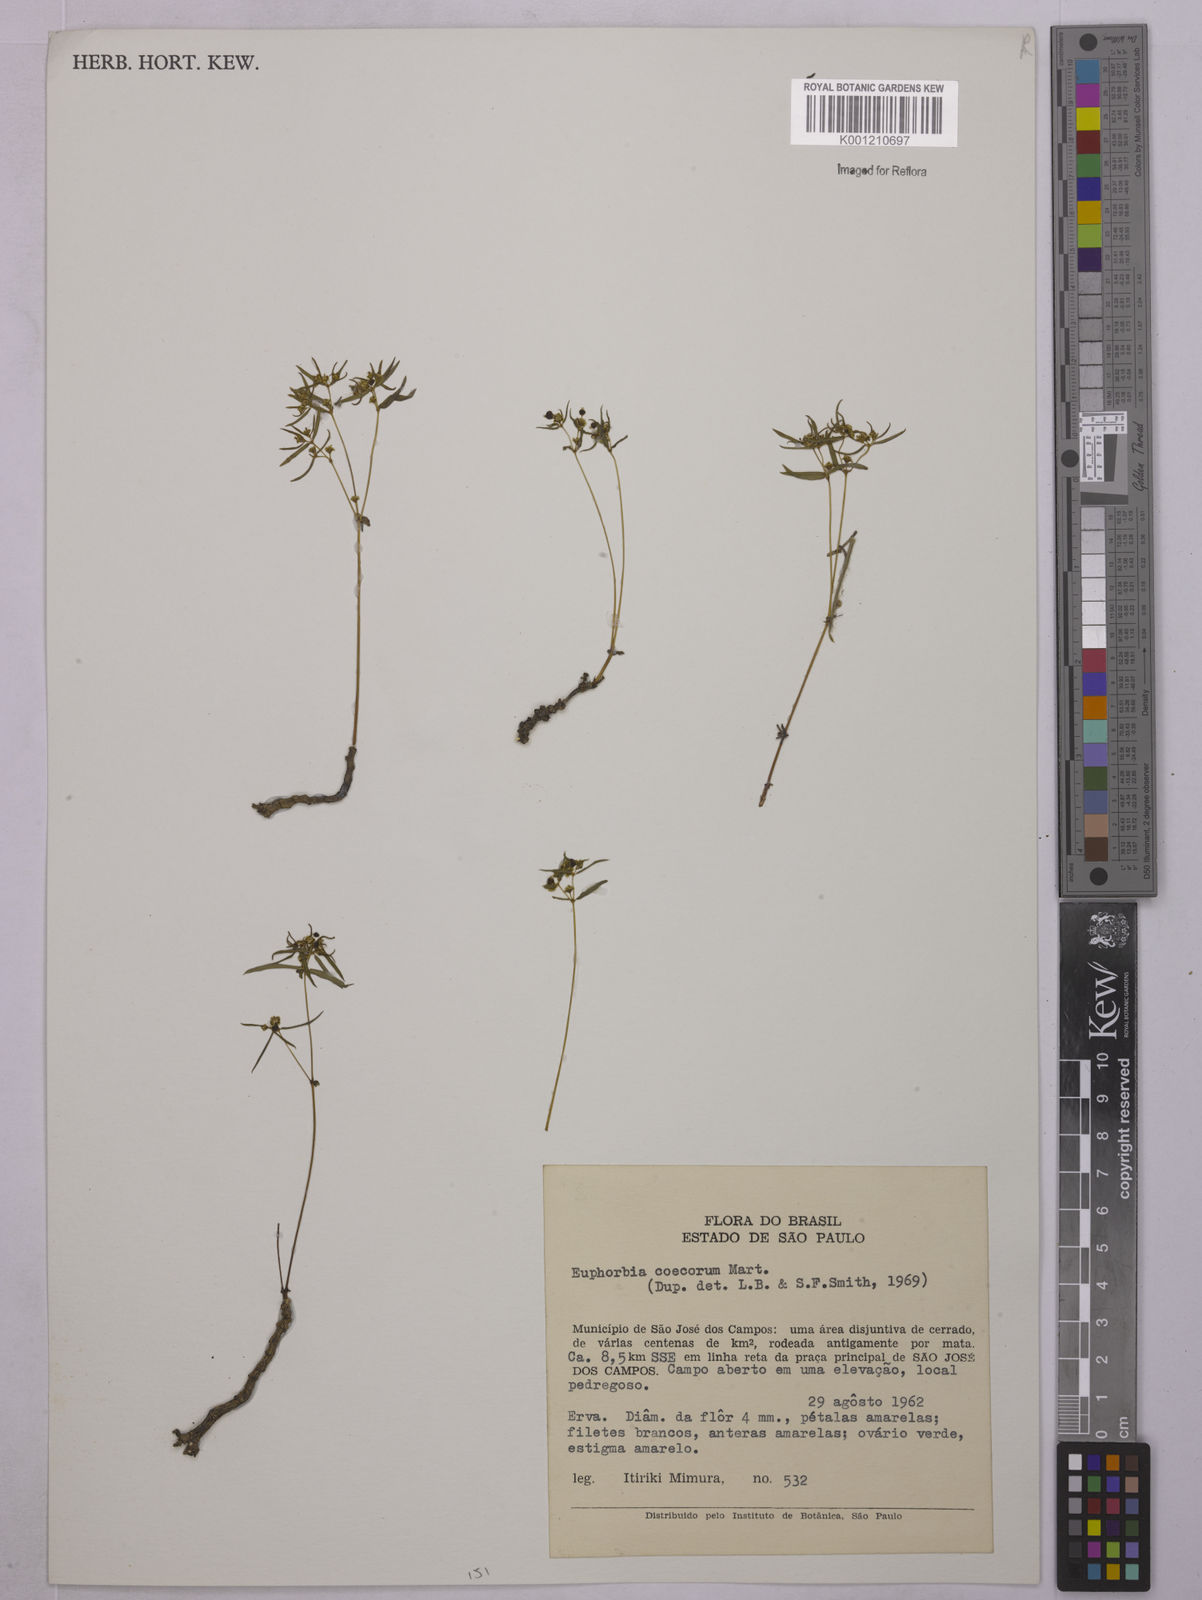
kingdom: Plantae
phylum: Tracheophyta
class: Magnoliopsida
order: Malpighiales
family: Euphorbiaceae
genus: Euphorbia
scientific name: Euphorbia potentilloides
